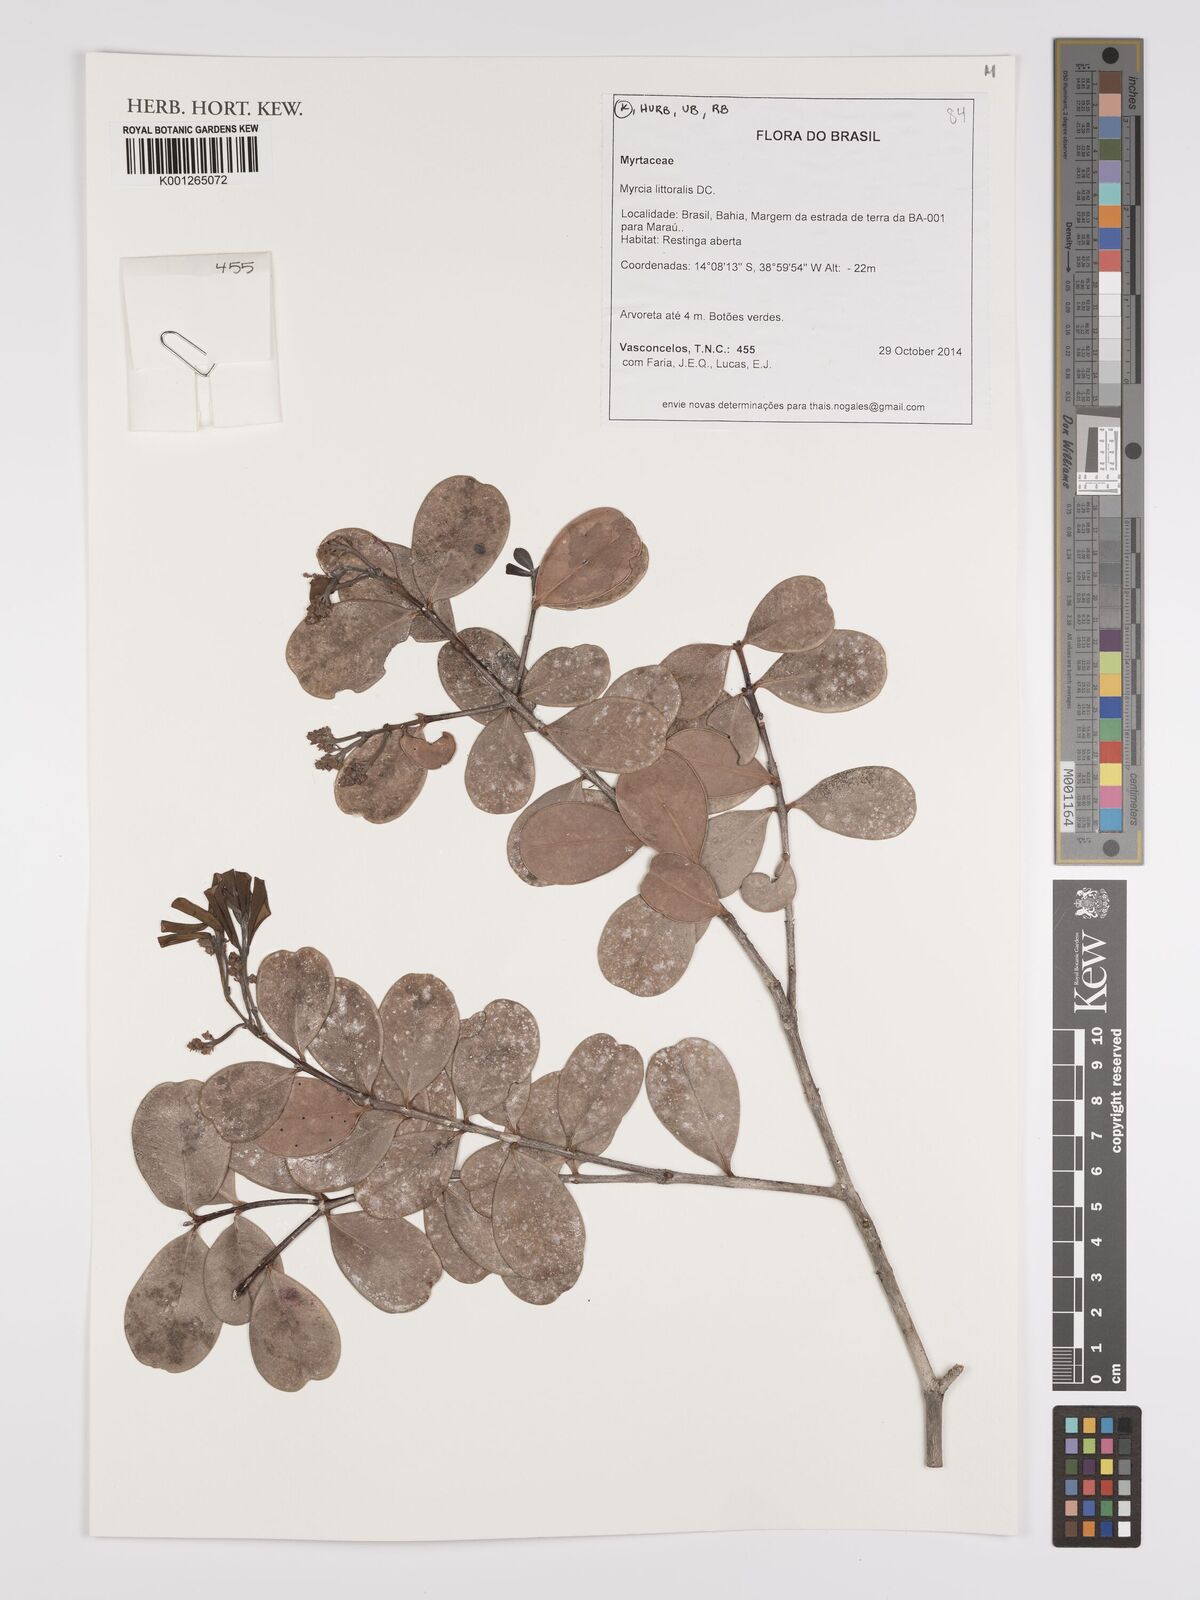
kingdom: Plantae
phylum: Tracheophyta
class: Magnoliopsida
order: Myrtales
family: Myrtaceae
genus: Myrcia
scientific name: Myrcia littoralis
